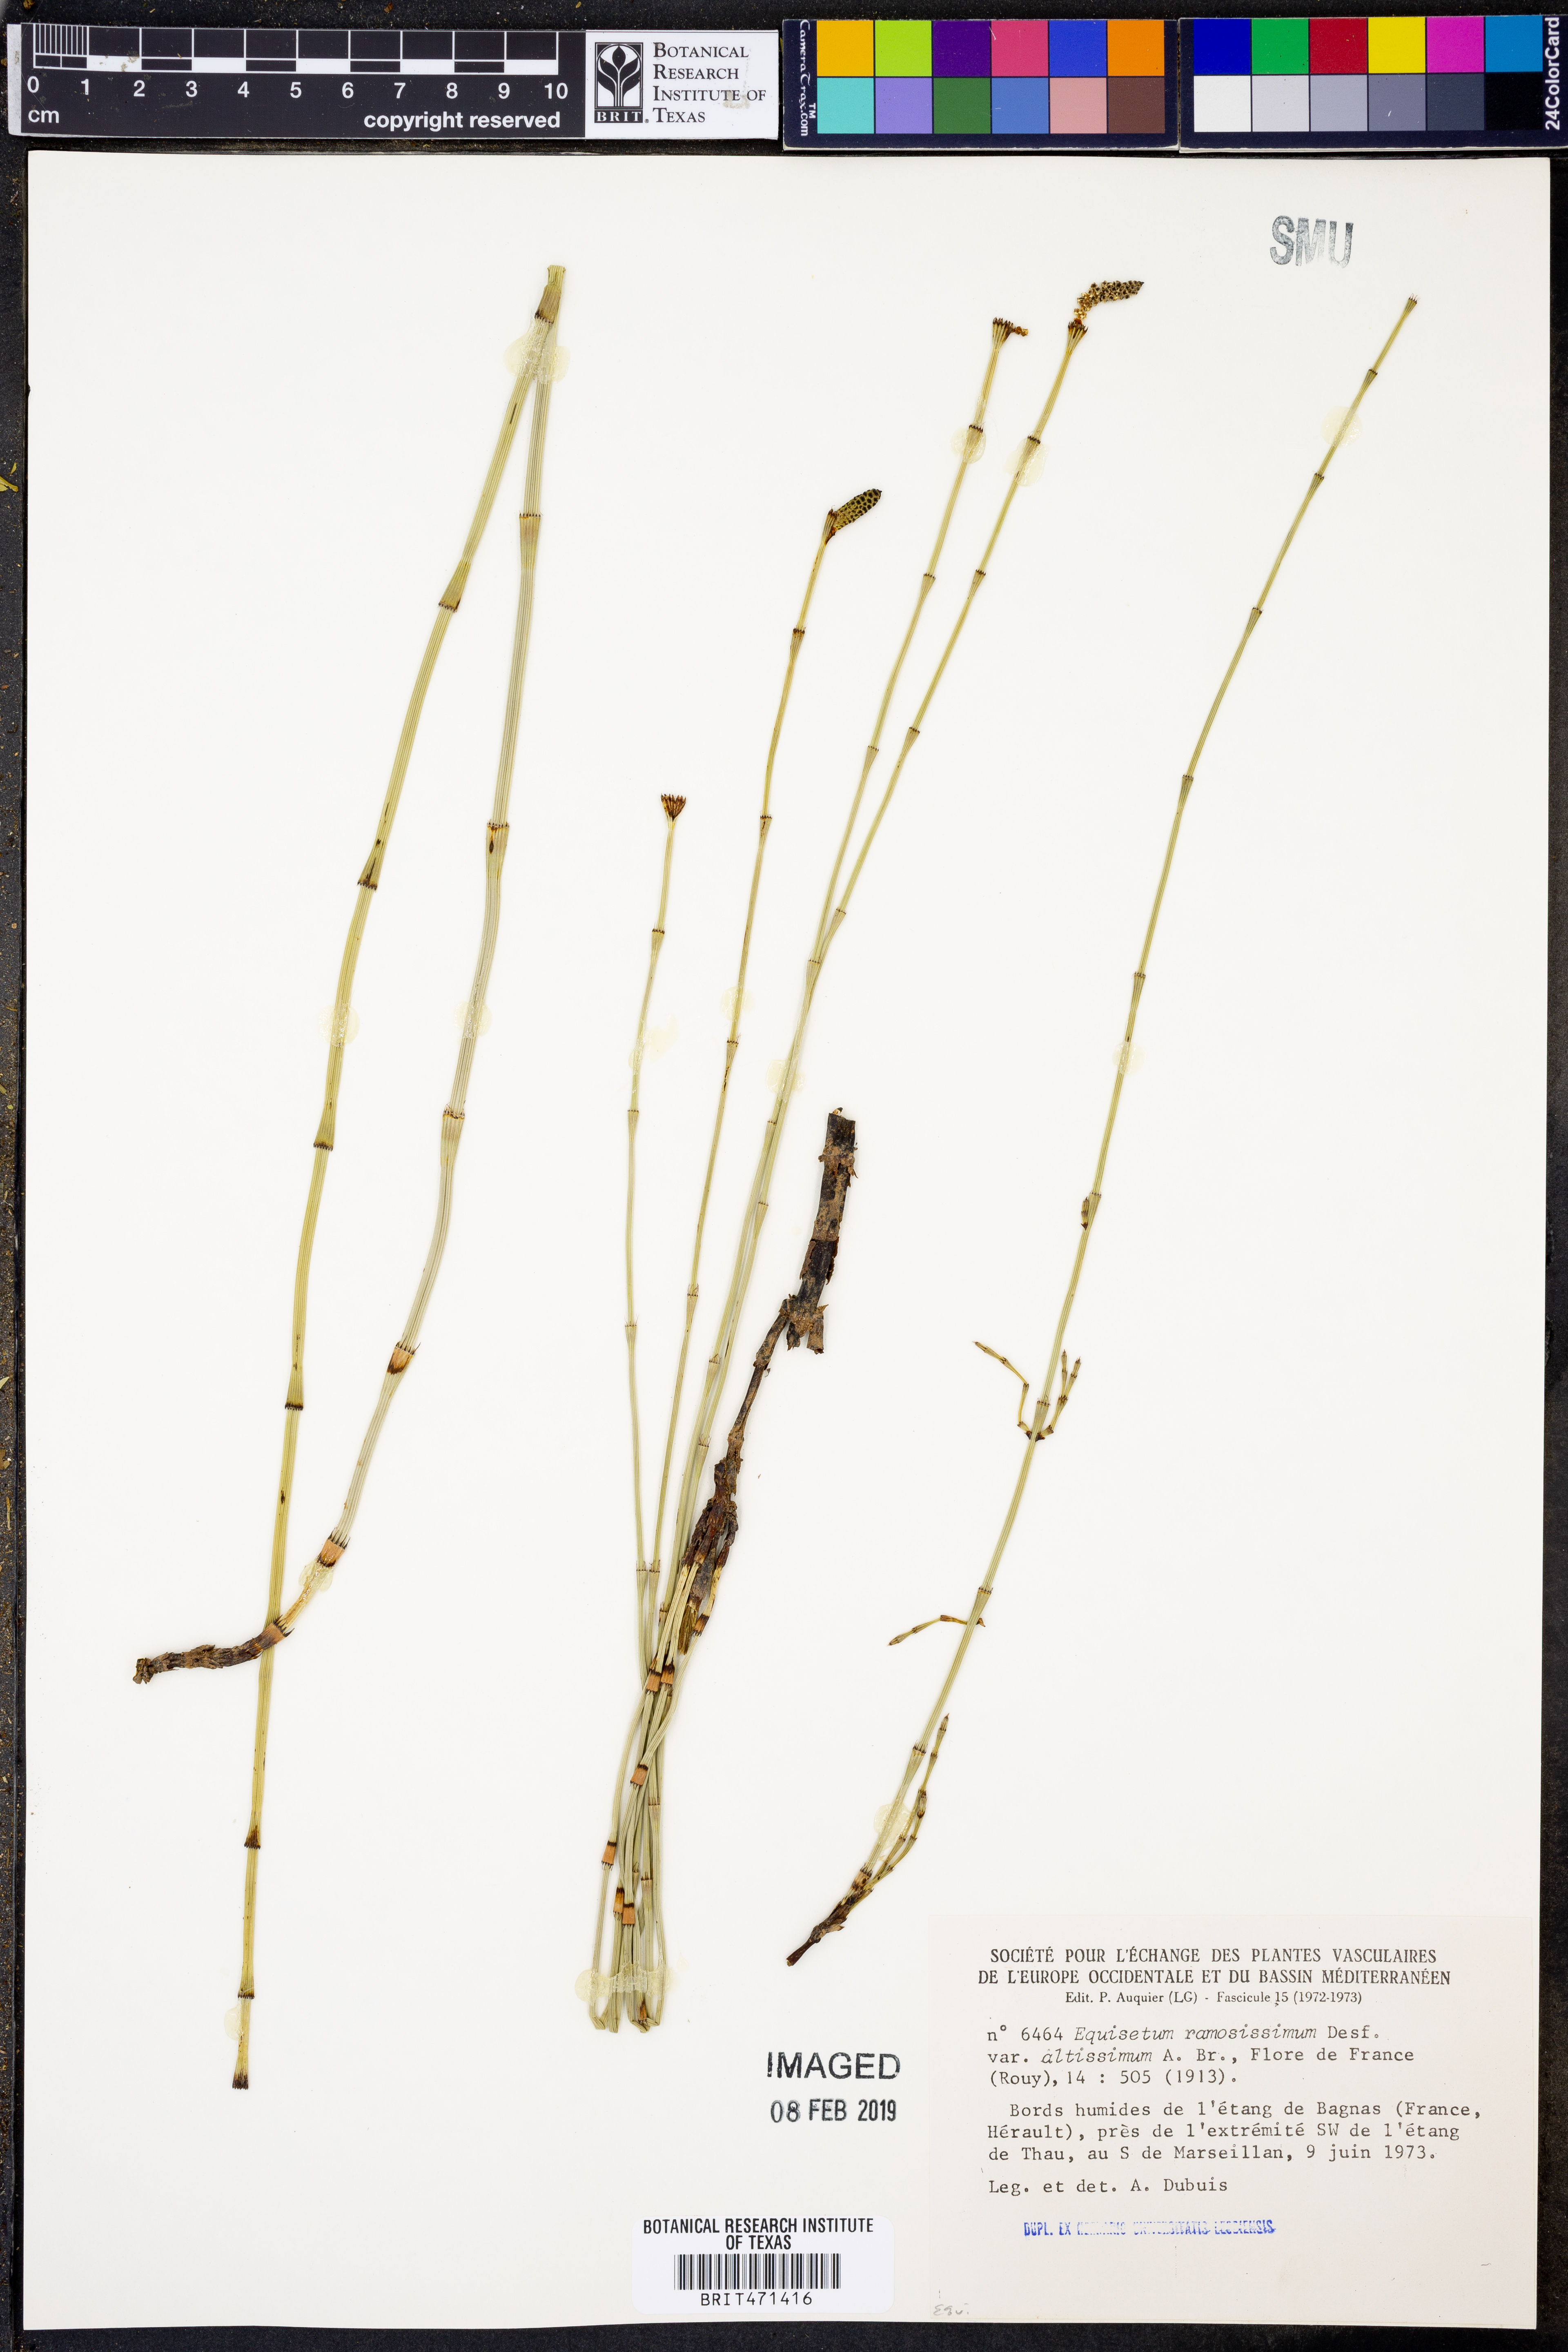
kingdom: Plantae
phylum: Tracheophyta
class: Polypodiopsida
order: Equisetales
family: Equisetaceae
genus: Equisetum
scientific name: Equisetum ramosissimum
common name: Branched horsetail
